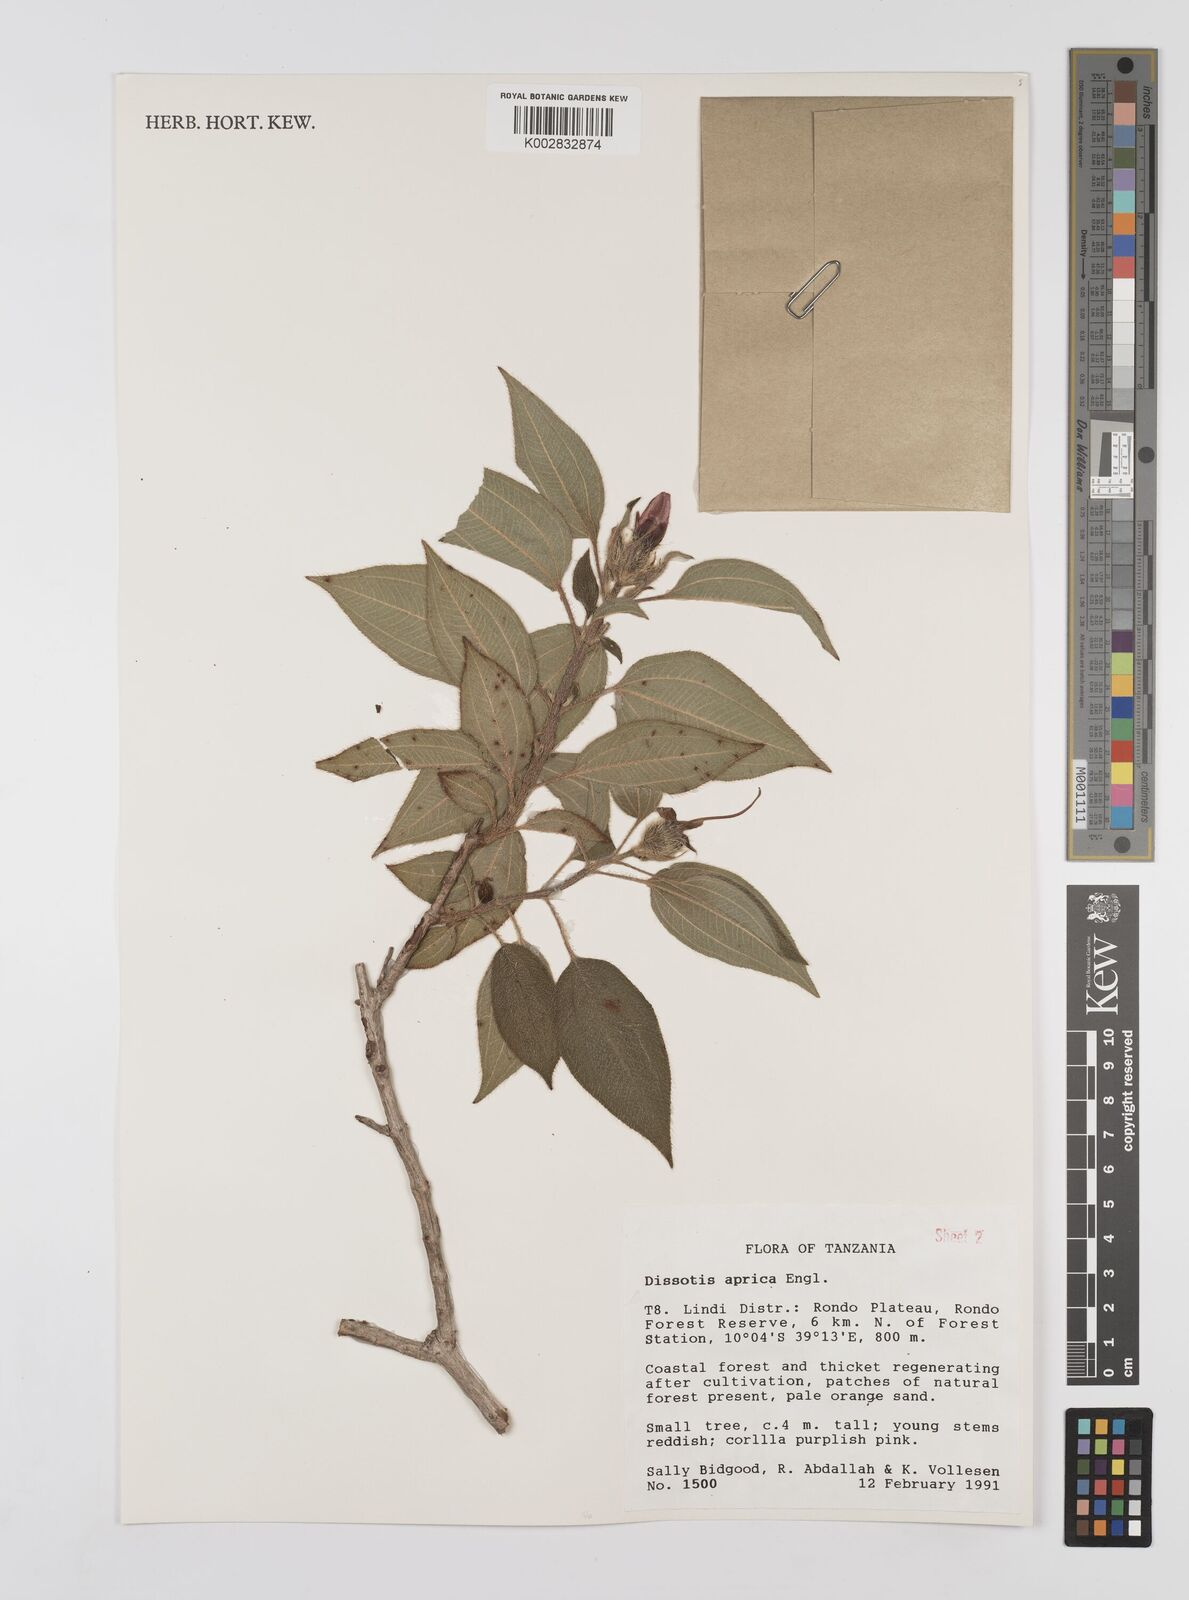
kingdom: Plantae
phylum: Tracheophyta
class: Magnoliopsida
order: Myrtales
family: Melastomataceae
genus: Dissotidendron
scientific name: Dissotidendron apricum
